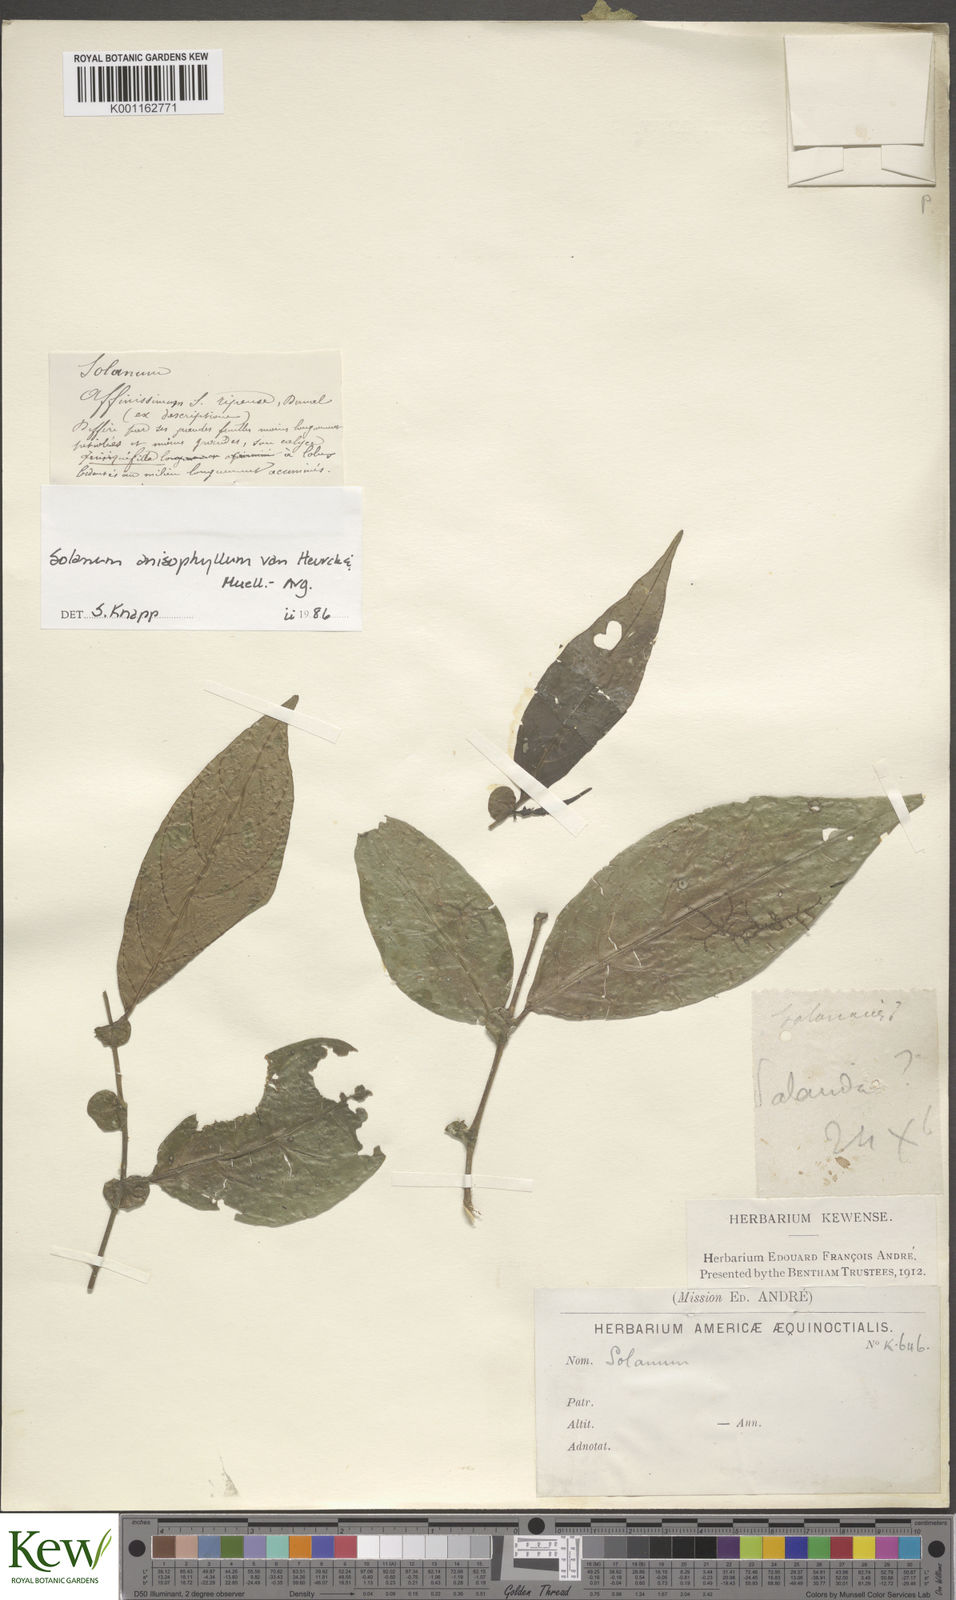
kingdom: Plantae
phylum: Tracheophyta
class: Magnoliopsida
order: Solanales
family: Solanaceae
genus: Solanum
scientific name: Solanum
